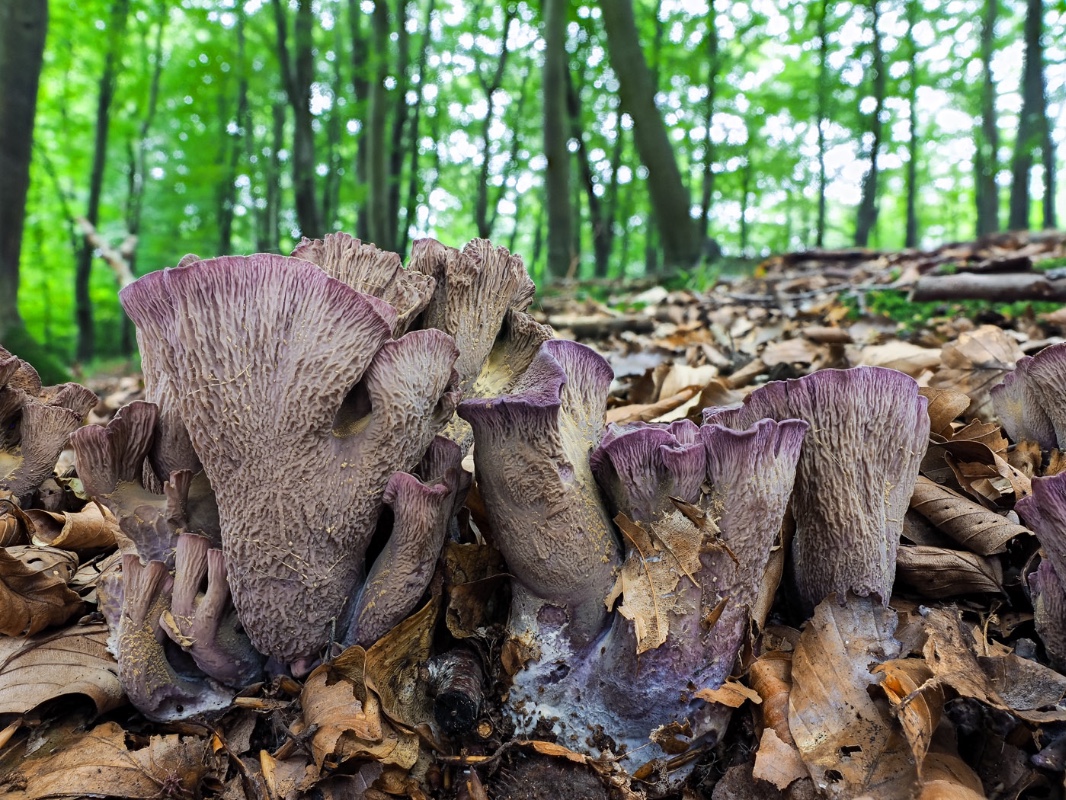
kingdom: Fungi
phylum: Basidiomycota
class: Agaricomycetes
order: Gomphales
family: Gomphaceae
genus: Gomphus
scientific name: Gomphus clavatus
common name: køllekantarel
